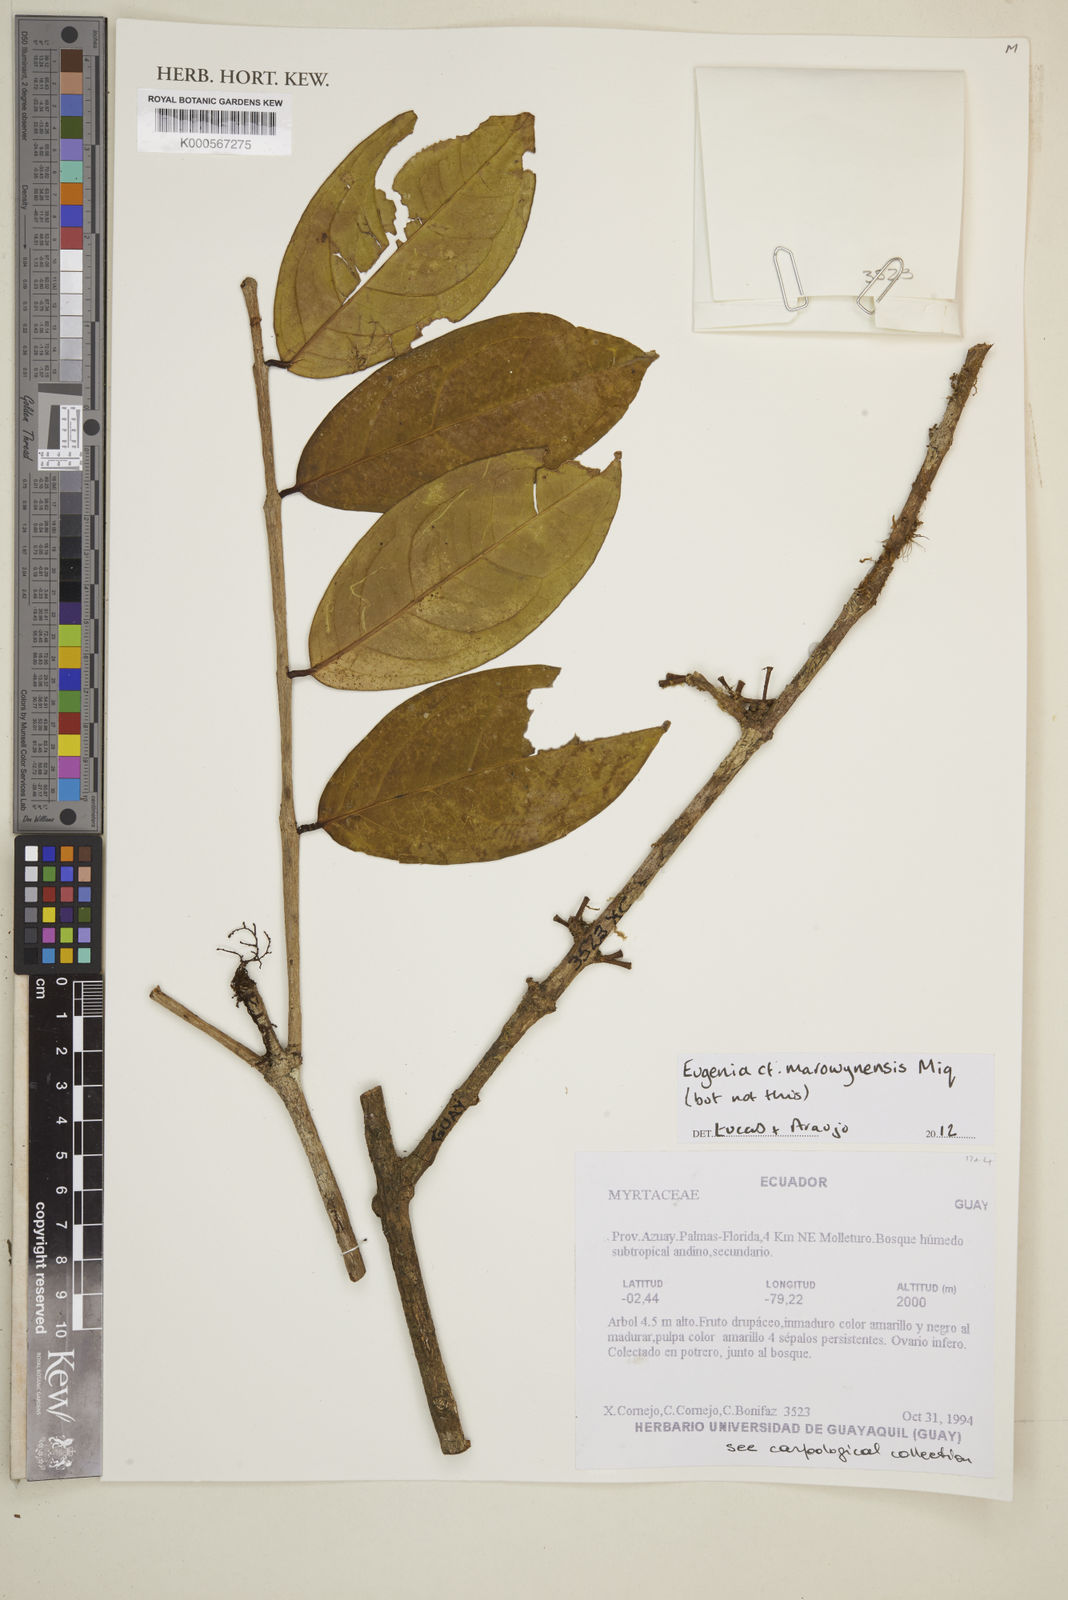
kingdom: Plantae
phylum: Tracheophyta
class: Magnoliopsida
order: Myrtales
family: Myrtaceae
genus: Eugenia
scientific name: Eugenia marowynensis
